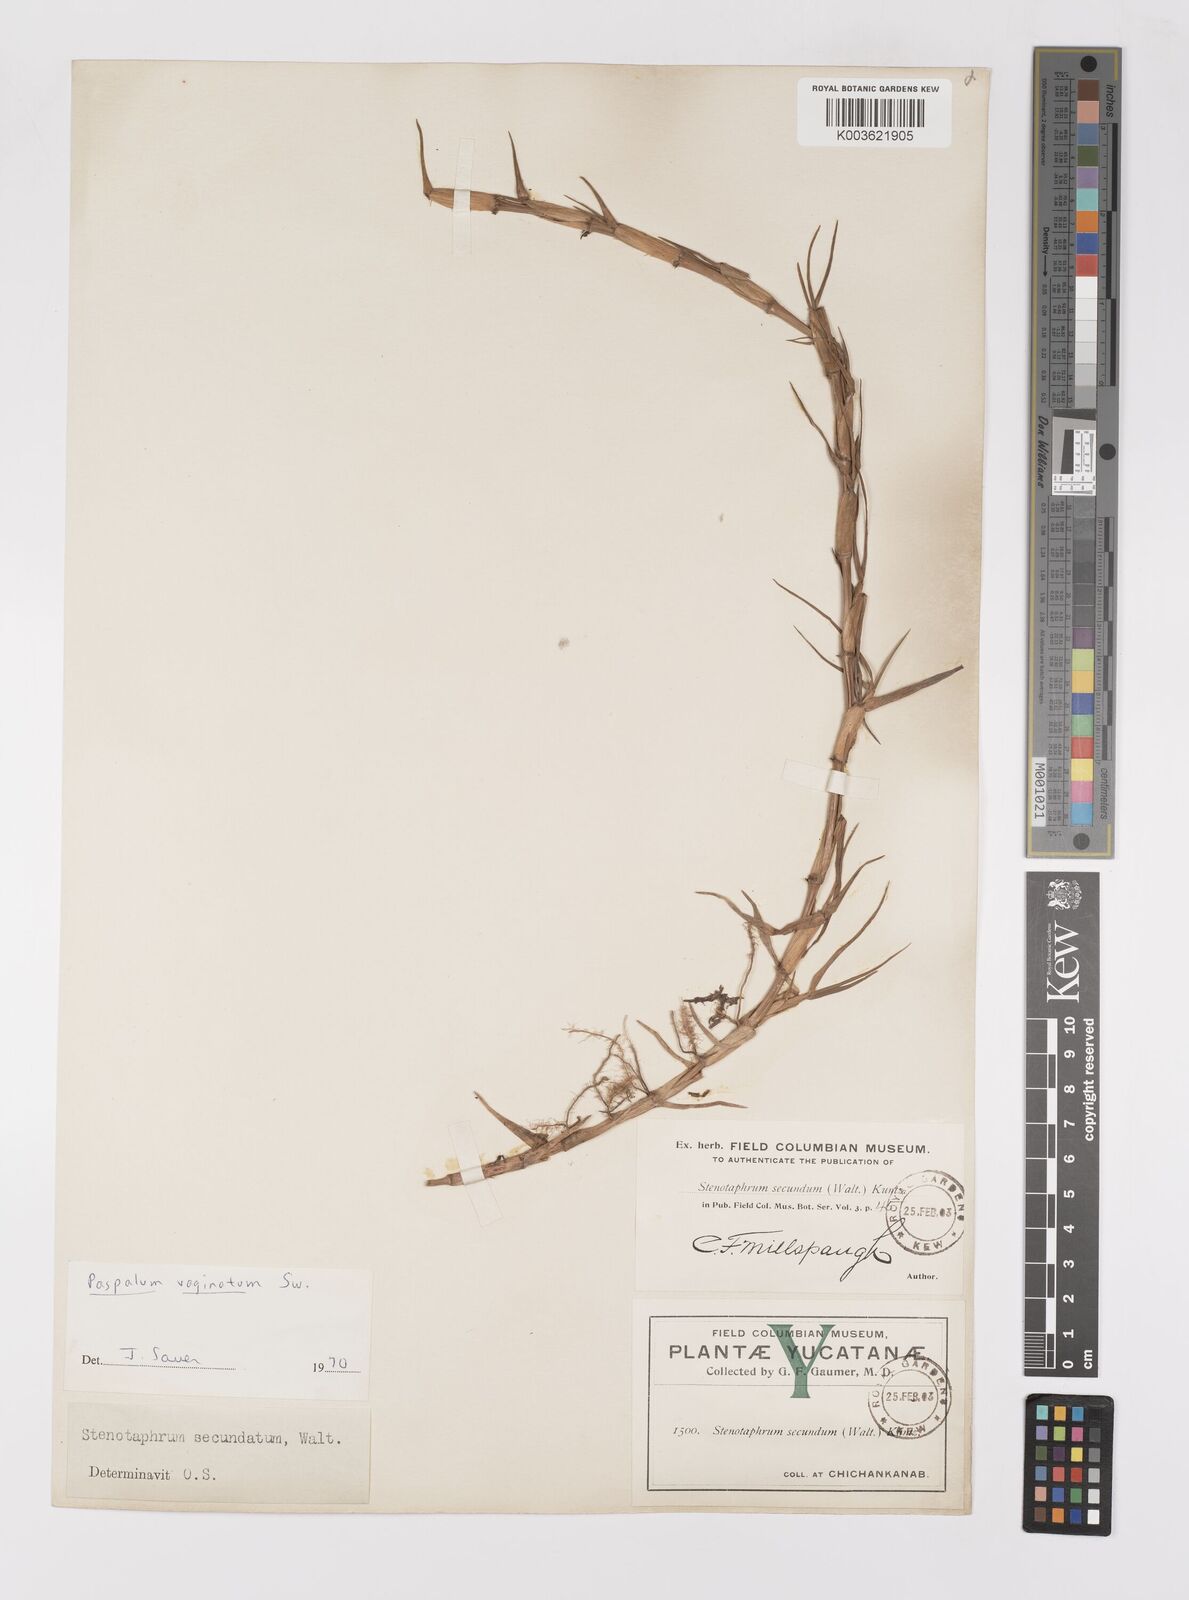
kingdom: Plantae
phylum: Tracheophyta
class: Liliopsida
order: Poales
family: Poaceae
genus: Paspalum
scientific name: Paspalum vaginatum
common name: Seashore paspalum
